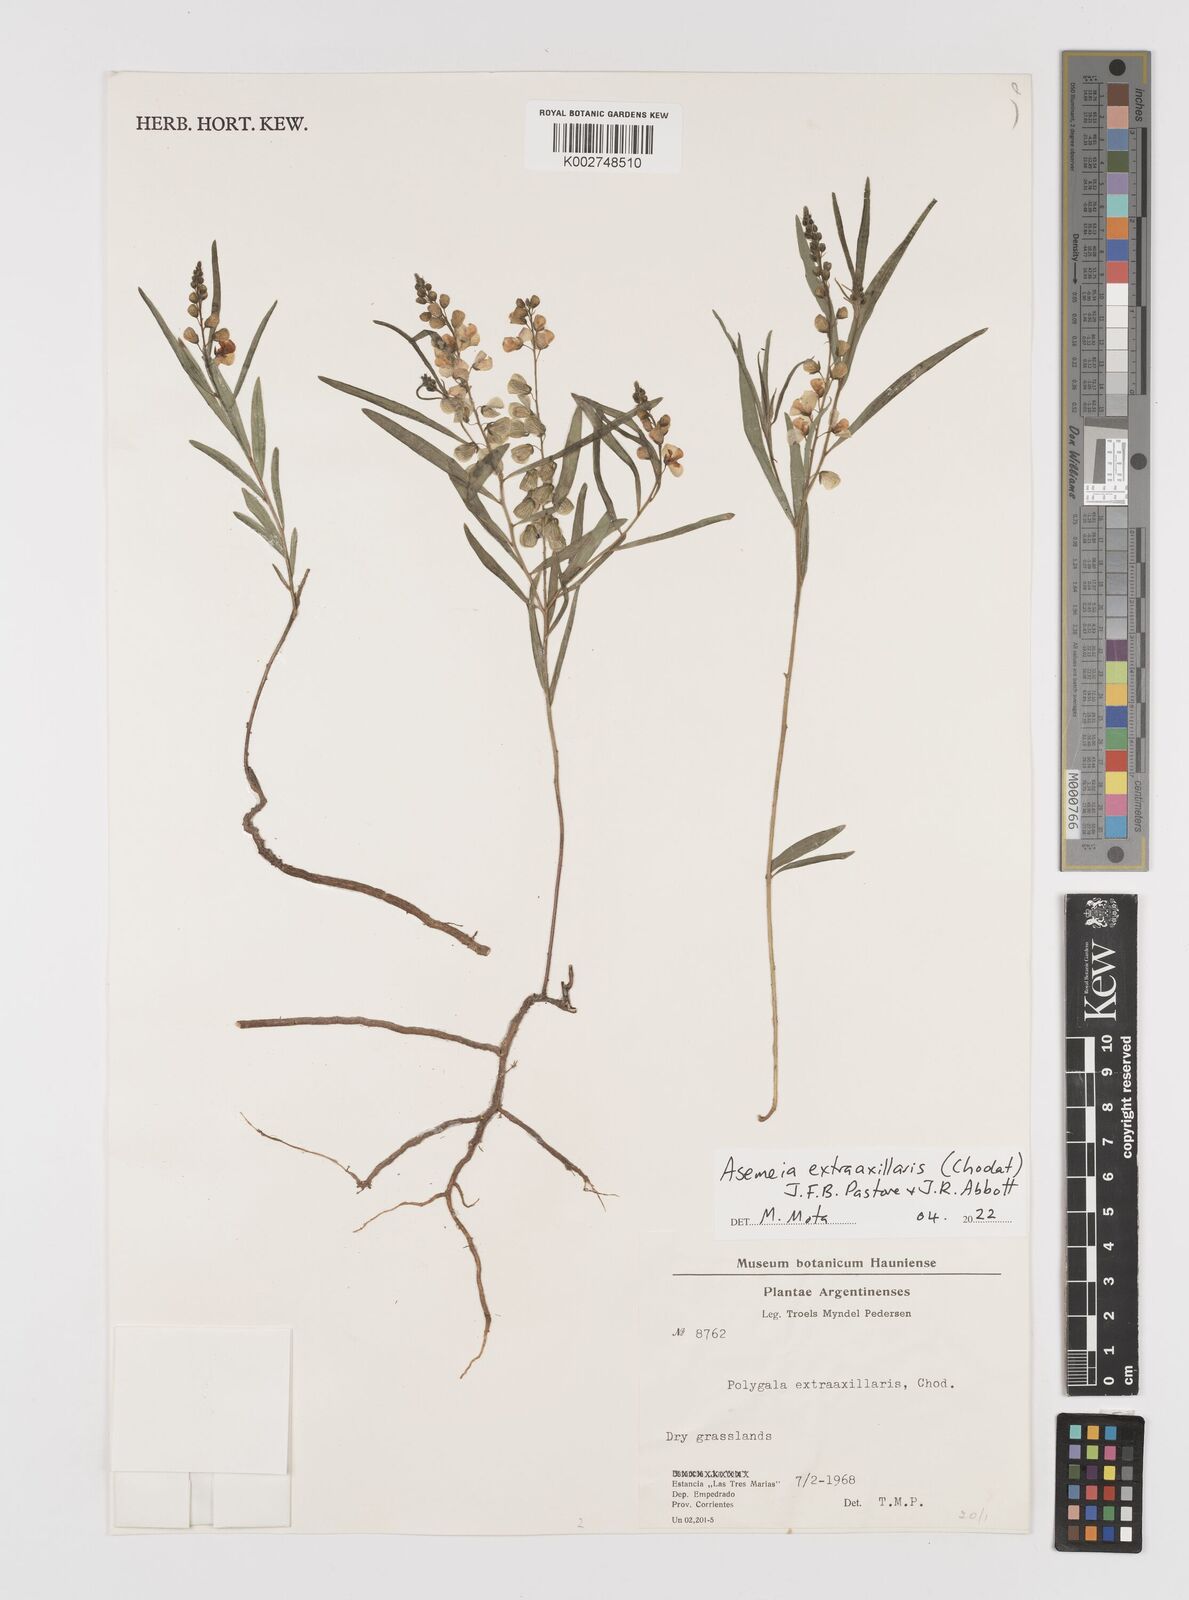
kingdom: Plantae
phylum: Tracheophyta
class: Magnoliopsida
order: Fabales
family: Polygalaceae
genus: Asemeia
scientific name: Asemeia extraaxillaris
